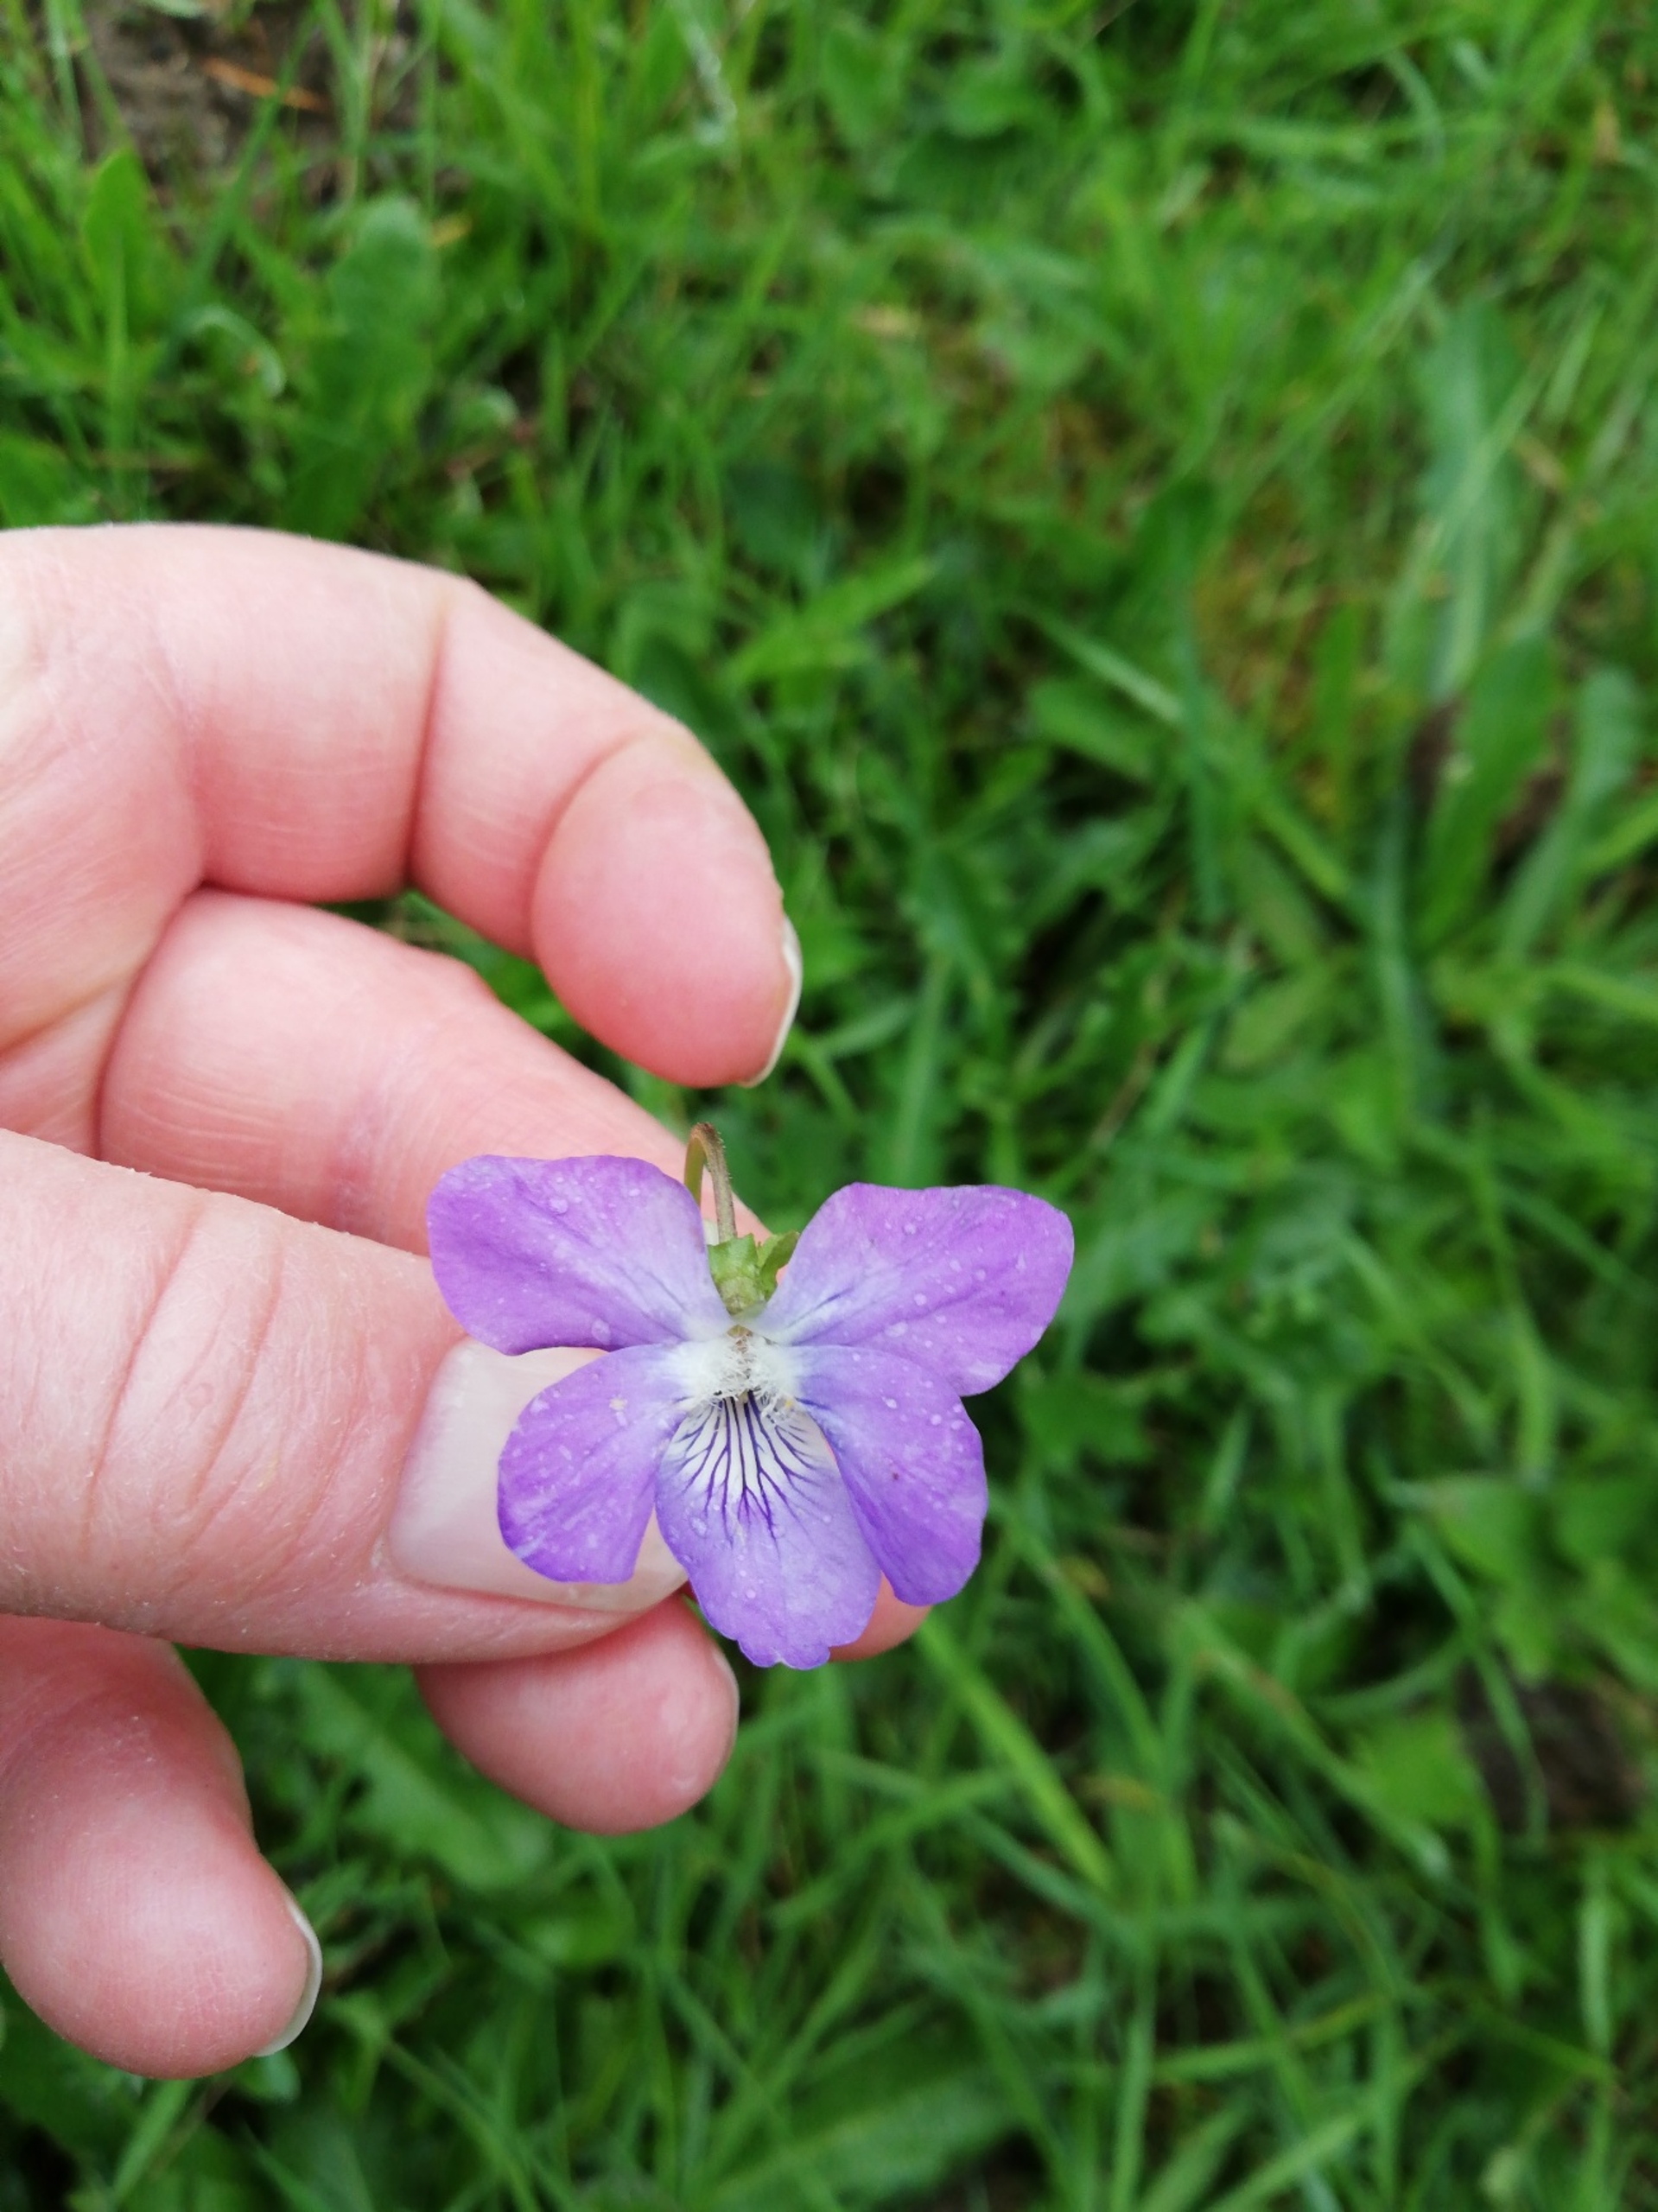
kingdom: Plantae
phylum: Tracheophyta
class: Magnoliopsida
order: Malpighiales
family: Violaceae
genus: Viola
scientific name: Viola riviniana
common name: Krat-viol
